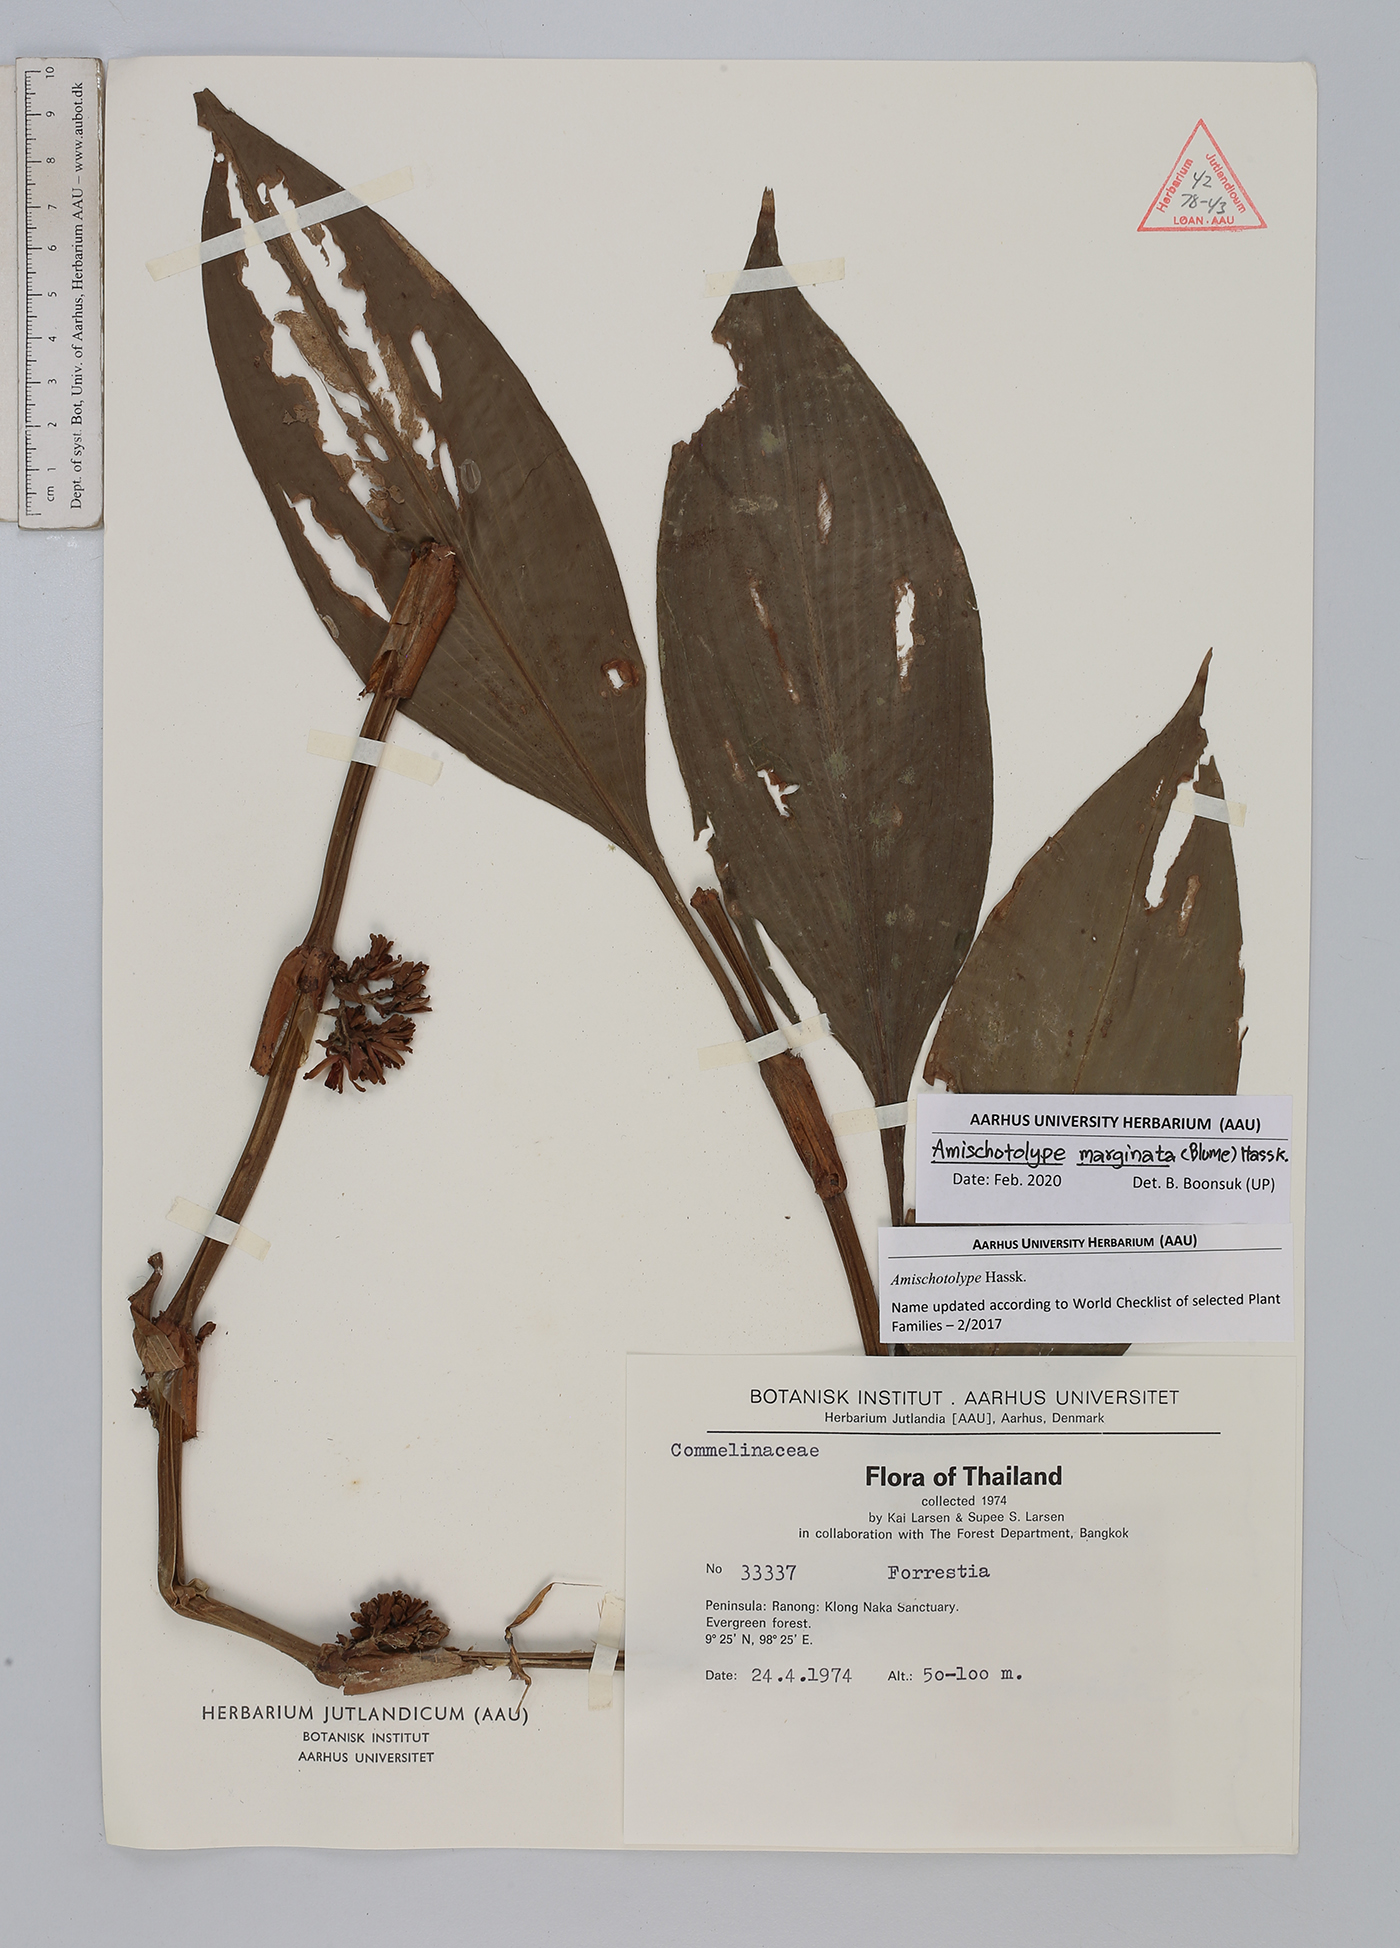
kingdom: Plantae
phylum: Tracheophyta
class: Liliopsida
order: Commelinales
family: Commelinaceae
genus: Amischotolype
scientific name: Amischotolype marginata
